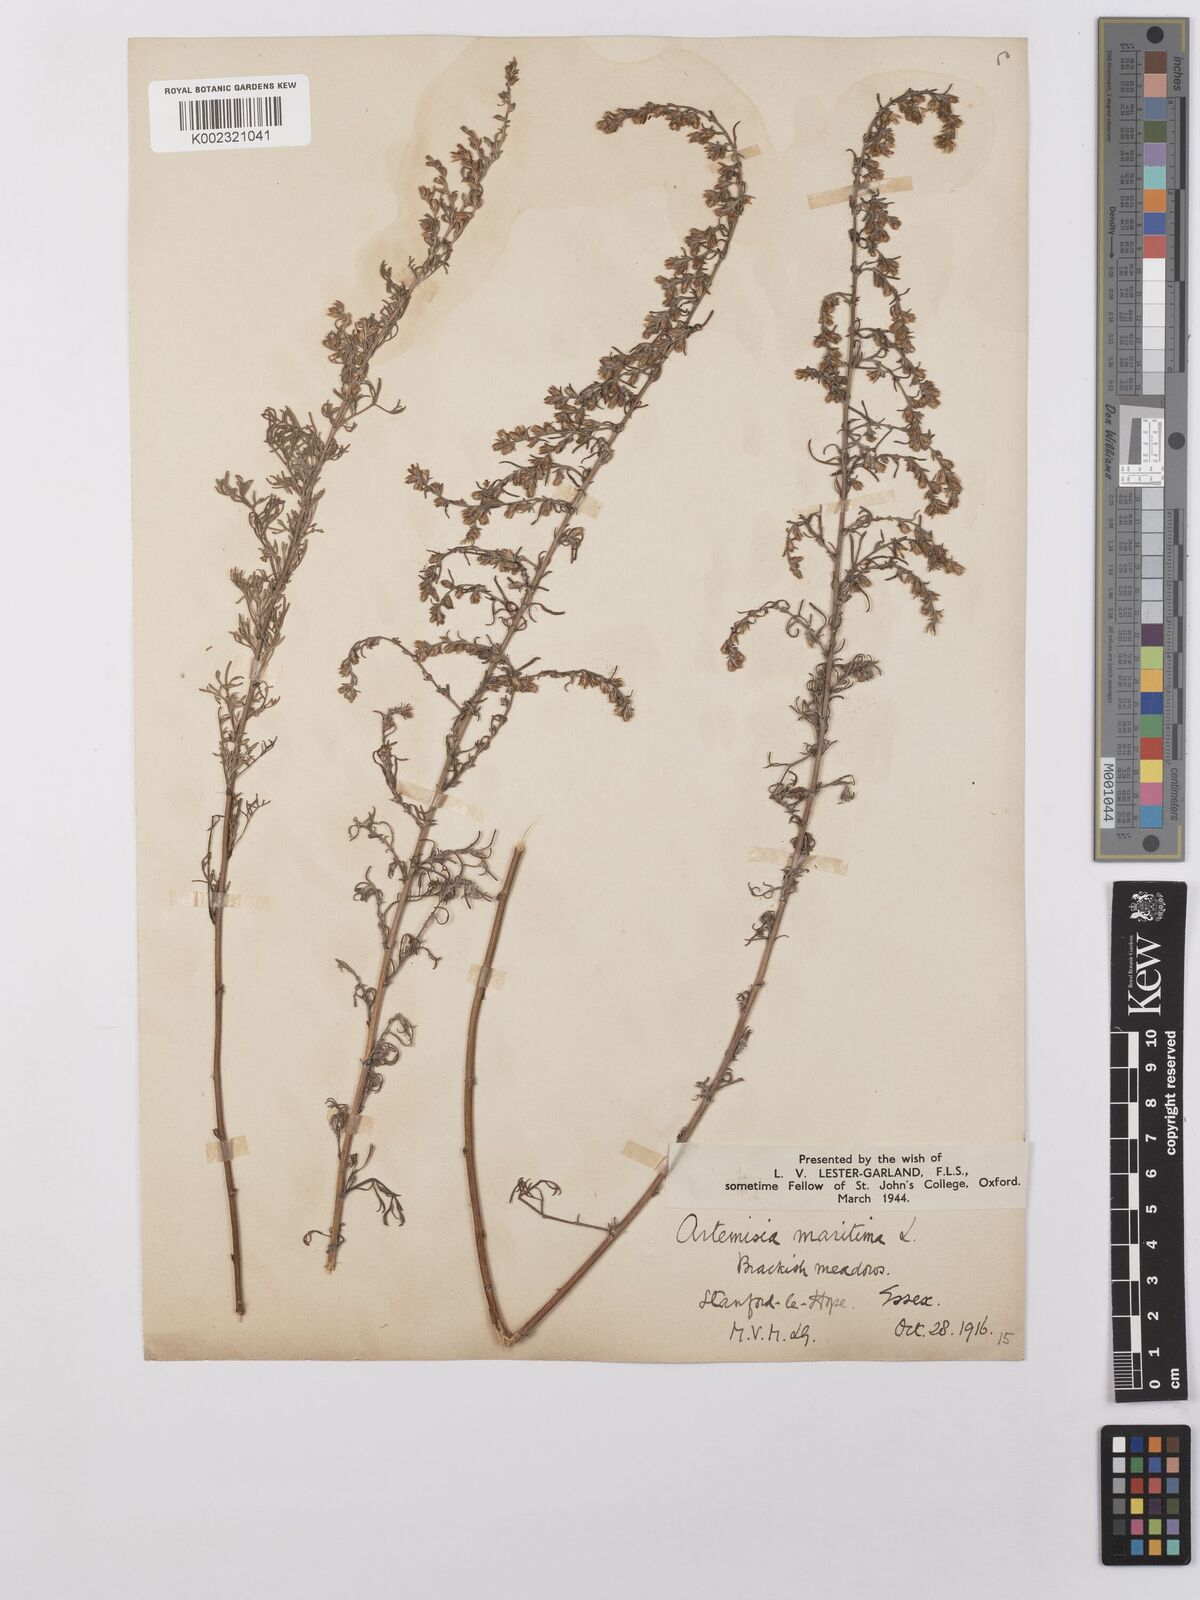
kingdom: Plantae
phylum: Tracheophyta
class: Magnoliopsida
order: Asterales
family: Asteraceae
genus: Artemisia
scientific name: Artemisia maritima
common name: Wormseed
